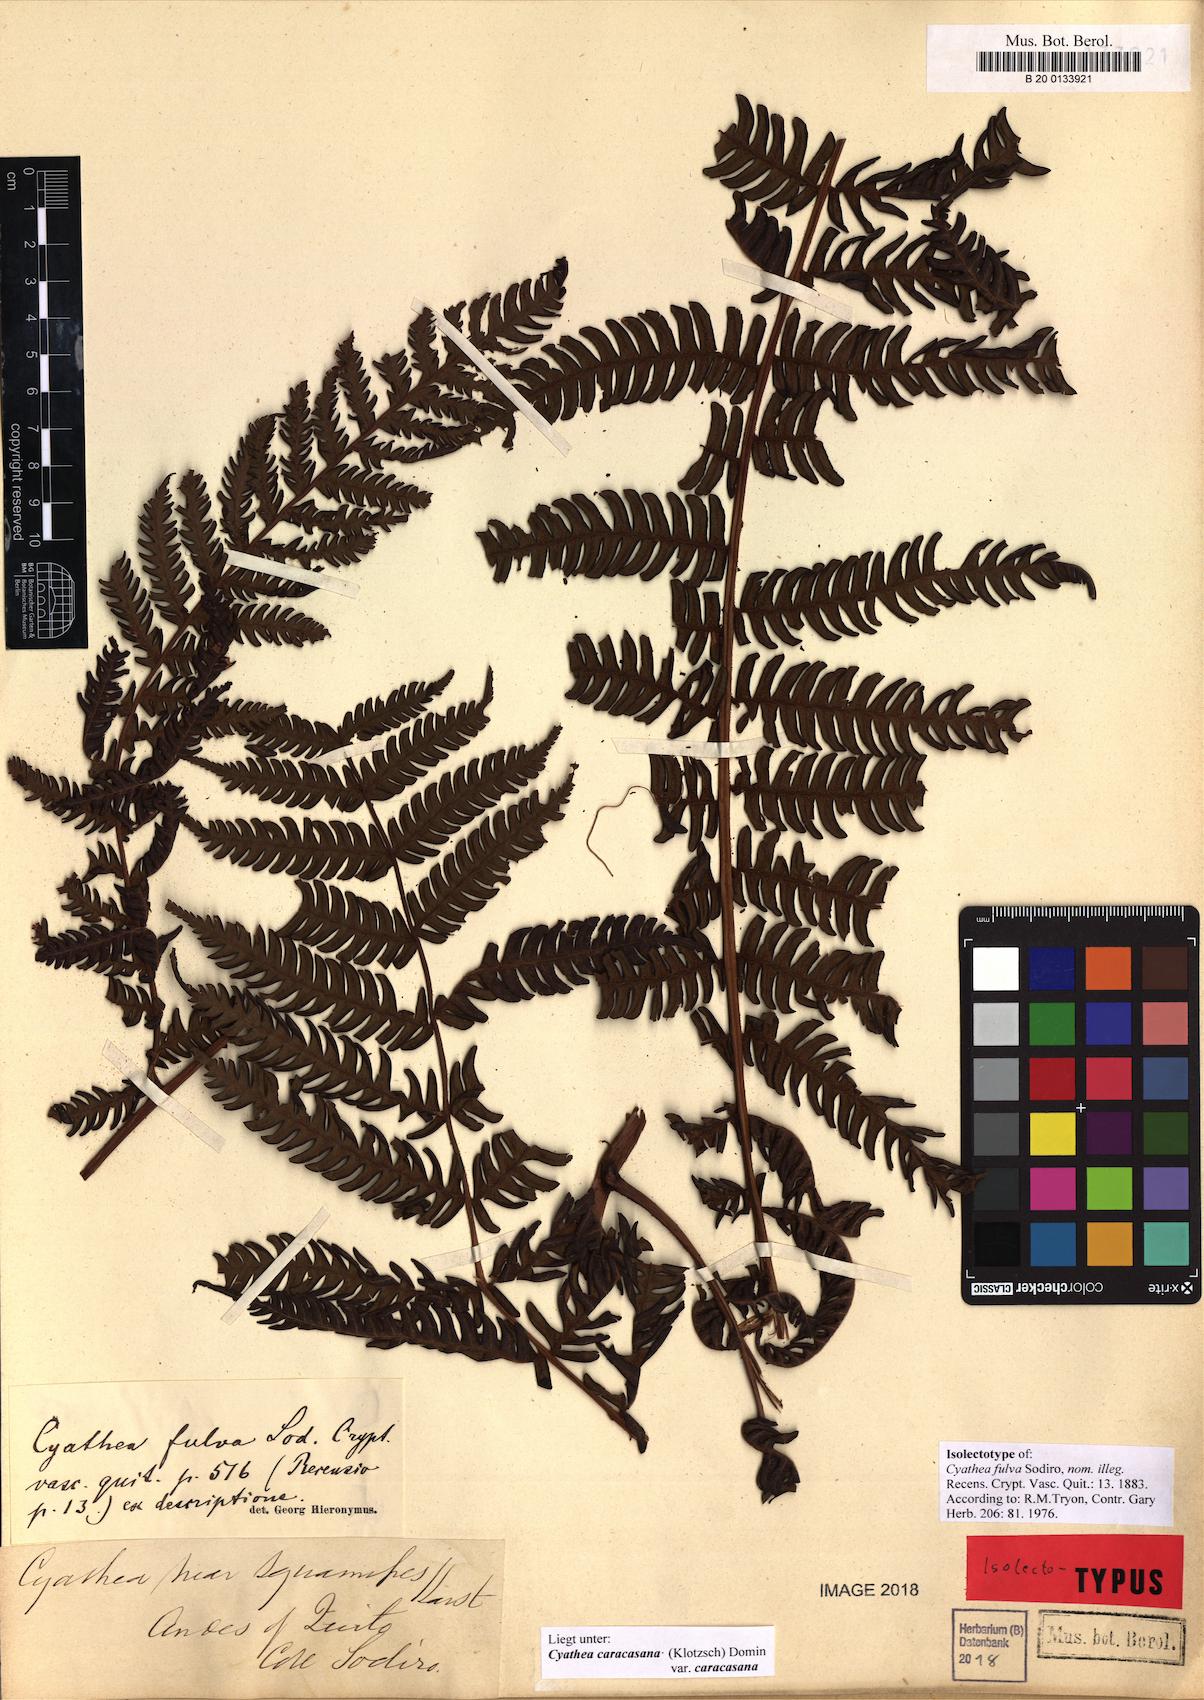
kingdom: Plantae
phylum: Tracheophyta
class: Polypodiopsida
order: Cyatheales
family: Cyatheaceae
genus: Cyathea
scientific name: Cyathea caracasana
